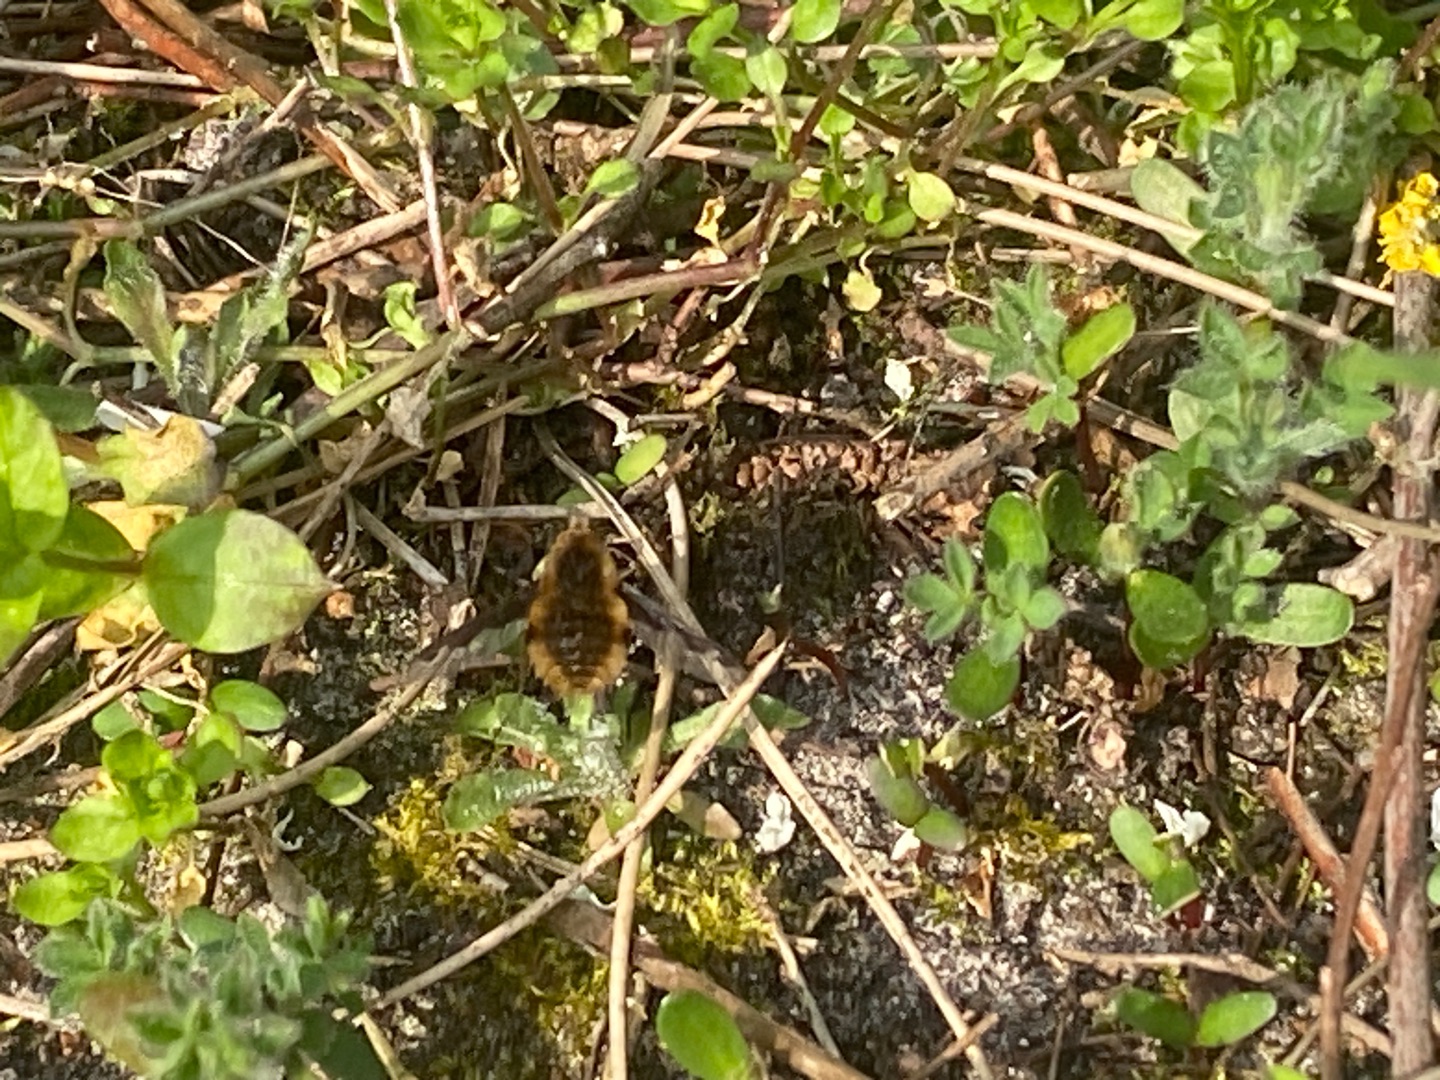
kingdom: Animalia
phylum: Arthropoda
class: Insecta
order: Diptera
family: Bombyliidae
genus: Bombylius
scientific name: Bombylius major
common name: Stor humleflue
